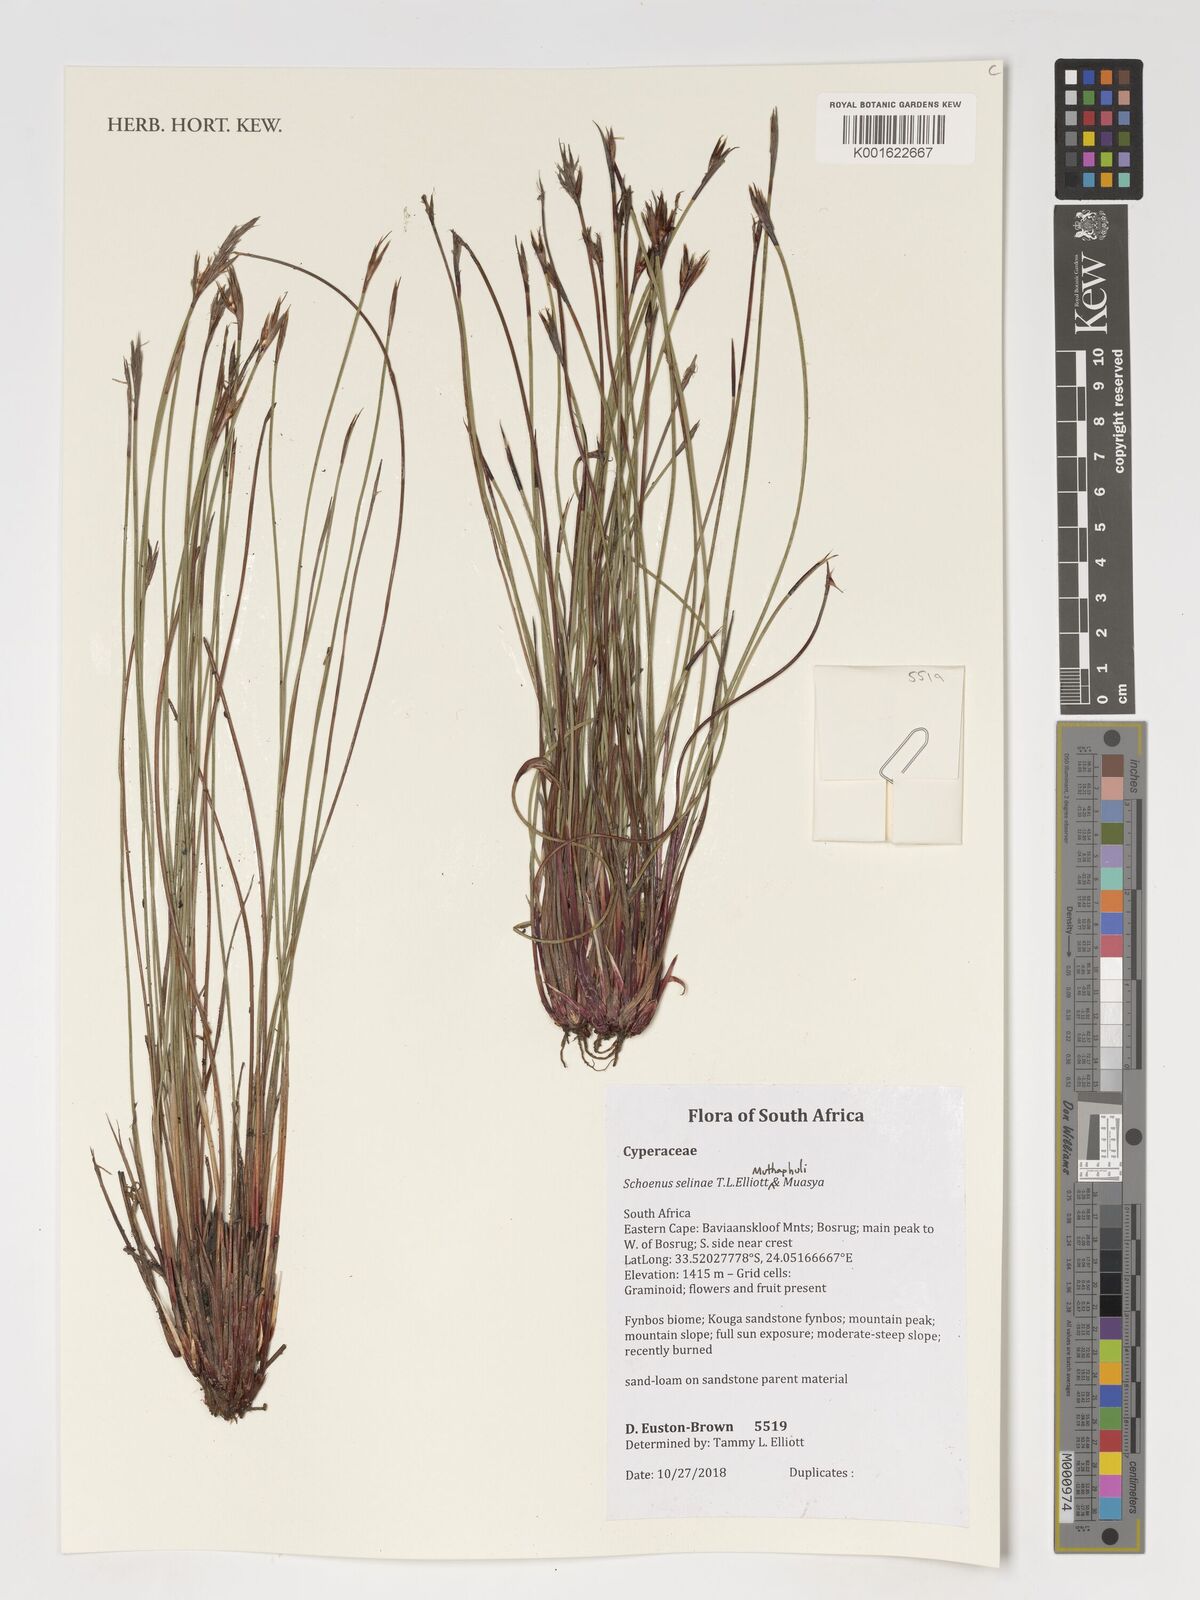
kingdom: Plantae
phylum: Tracheophyta
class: Liliopsida
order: Poales
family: Cyperaceae
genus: Schoenus
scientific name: Schoenus
